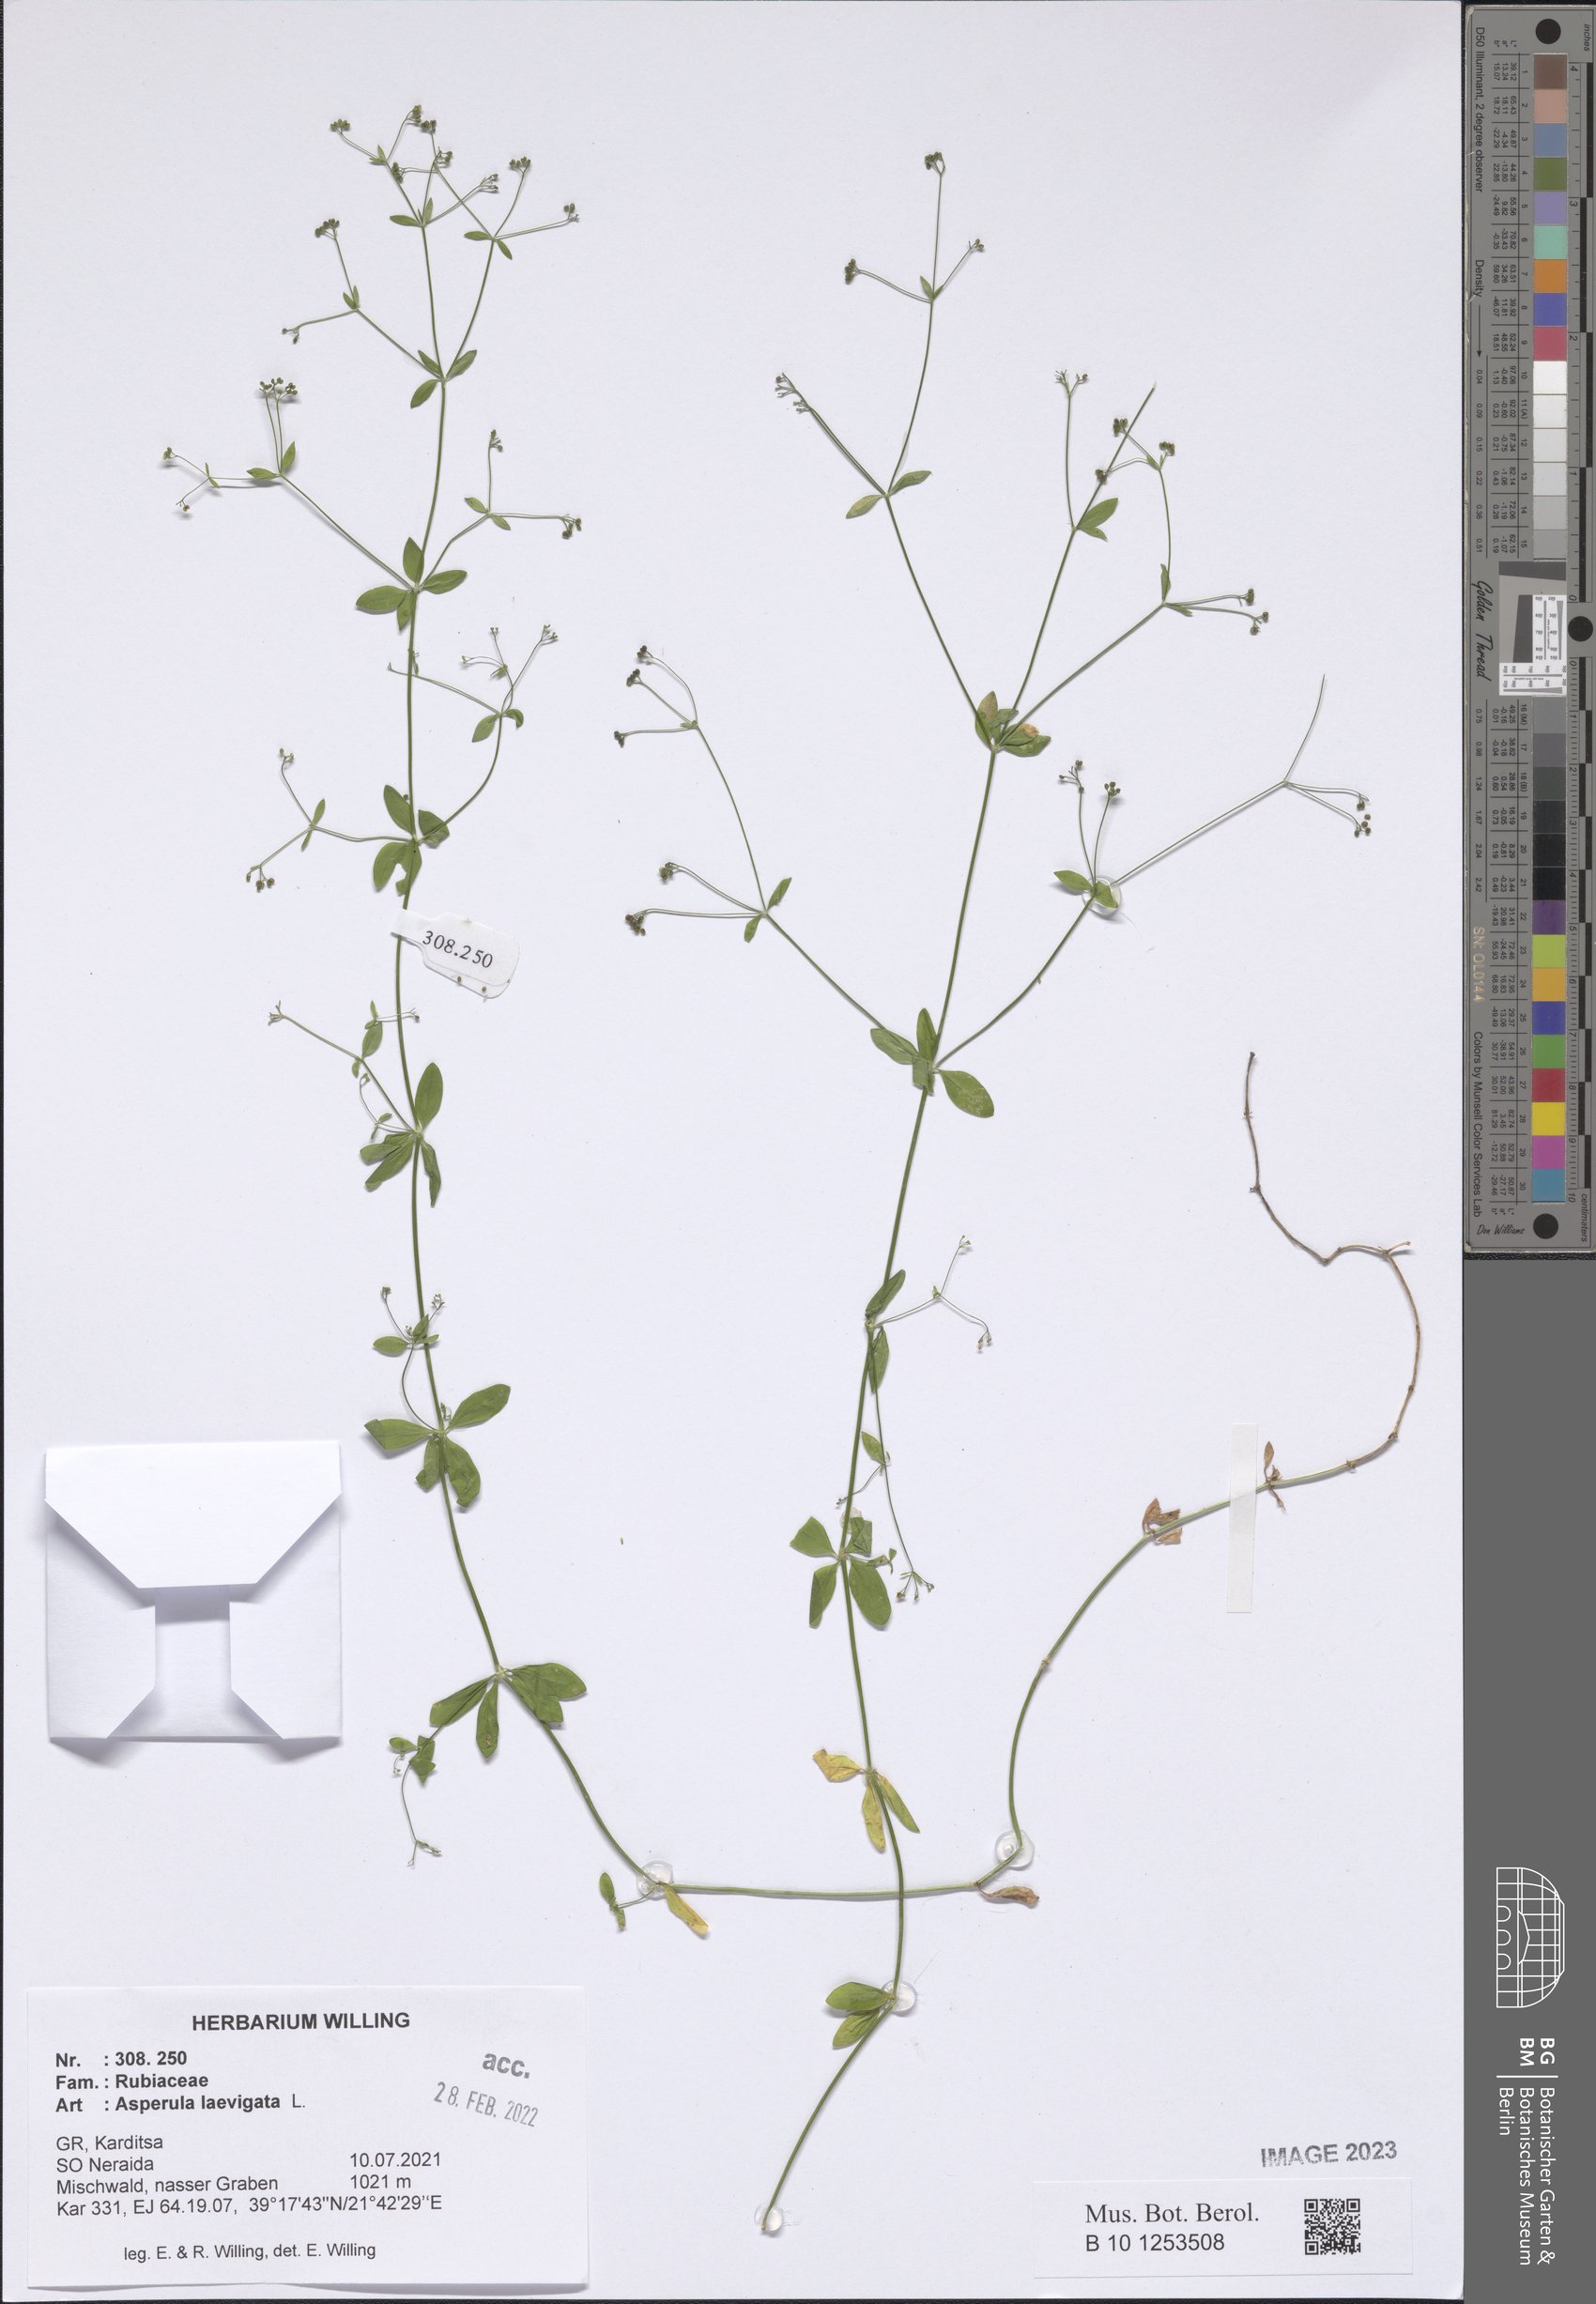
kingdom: Plantae
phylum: Tracheophyta
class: Magnoliopsida
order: Gentianales
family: Rubiaceae
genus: Asperula
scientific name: Asperula laevigata
